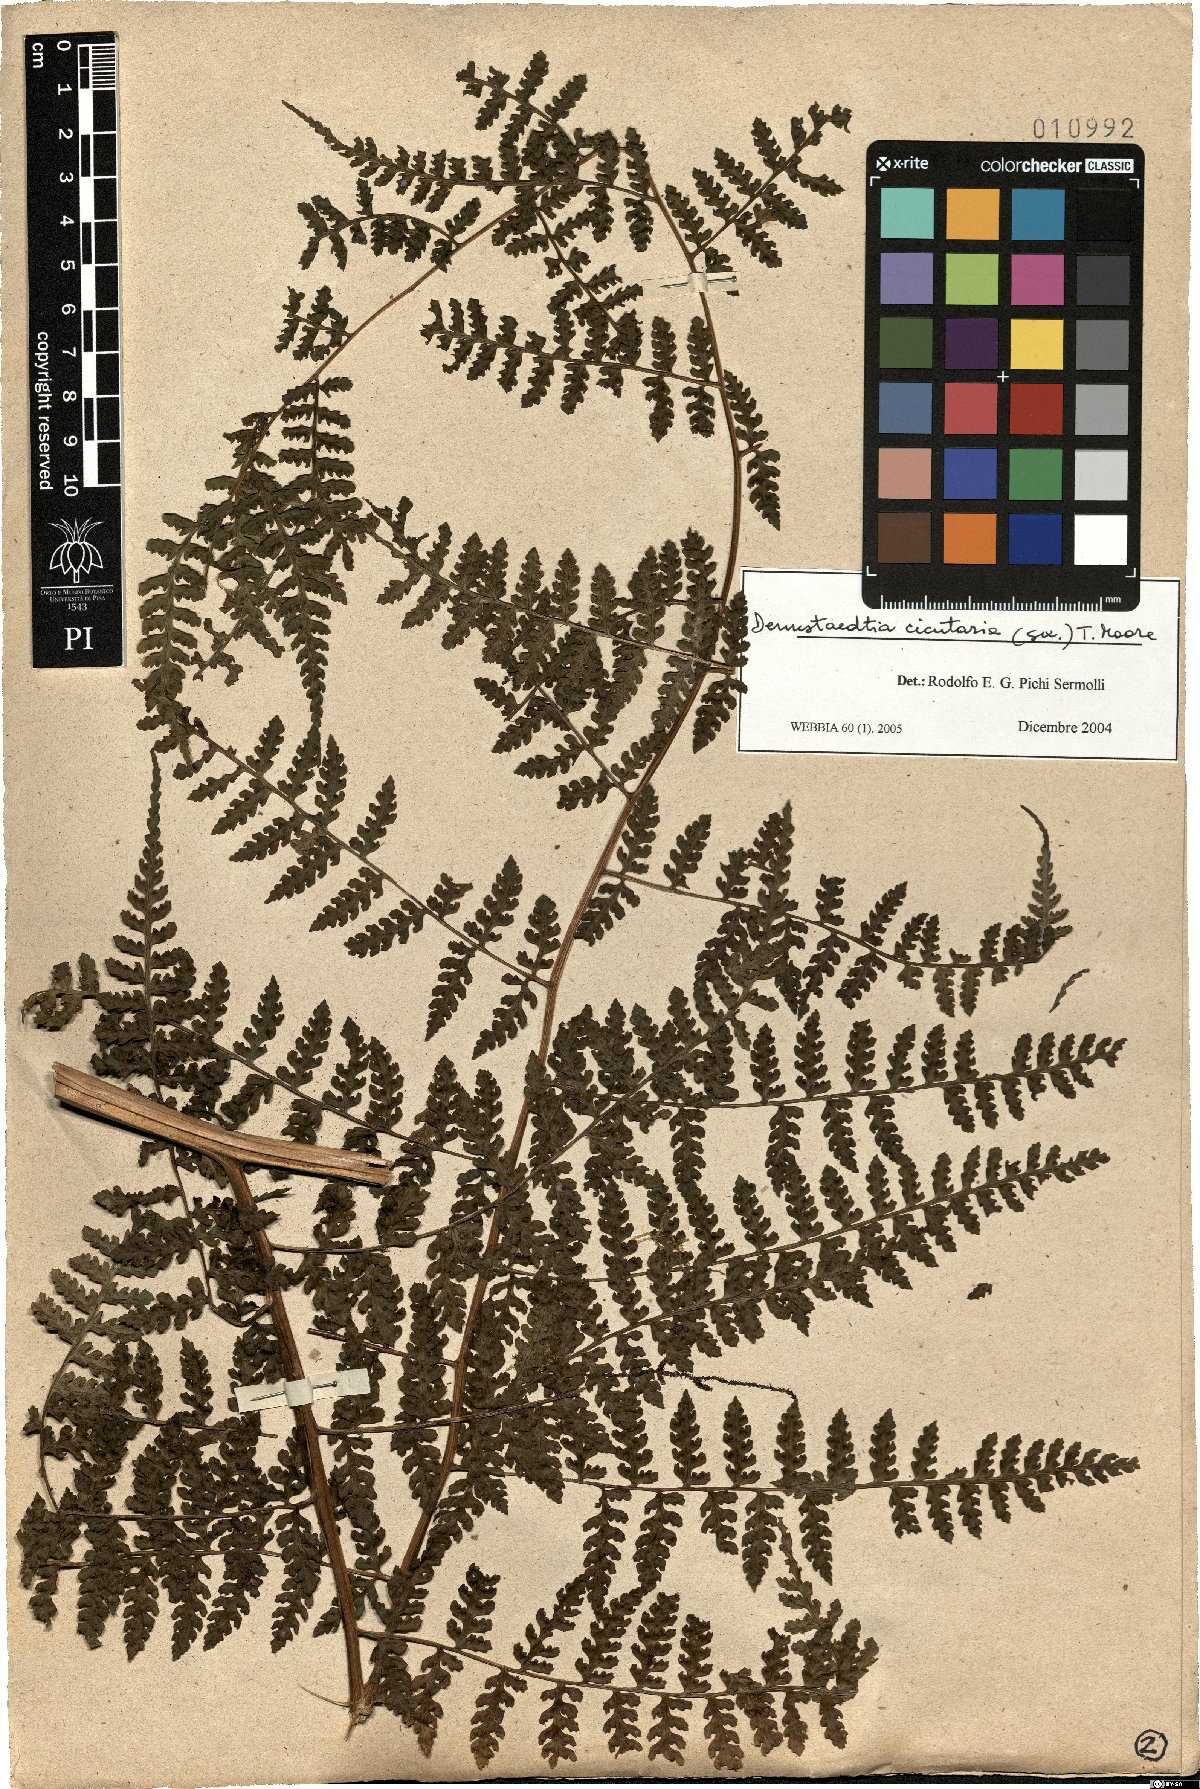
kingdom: Plantae
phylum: Tracheophyta
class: Polypodiopsida
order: Polypodiales
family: Dennstaedtiaceae
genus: Dennstaedtia
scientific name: Dennstaedtia cicutaria
